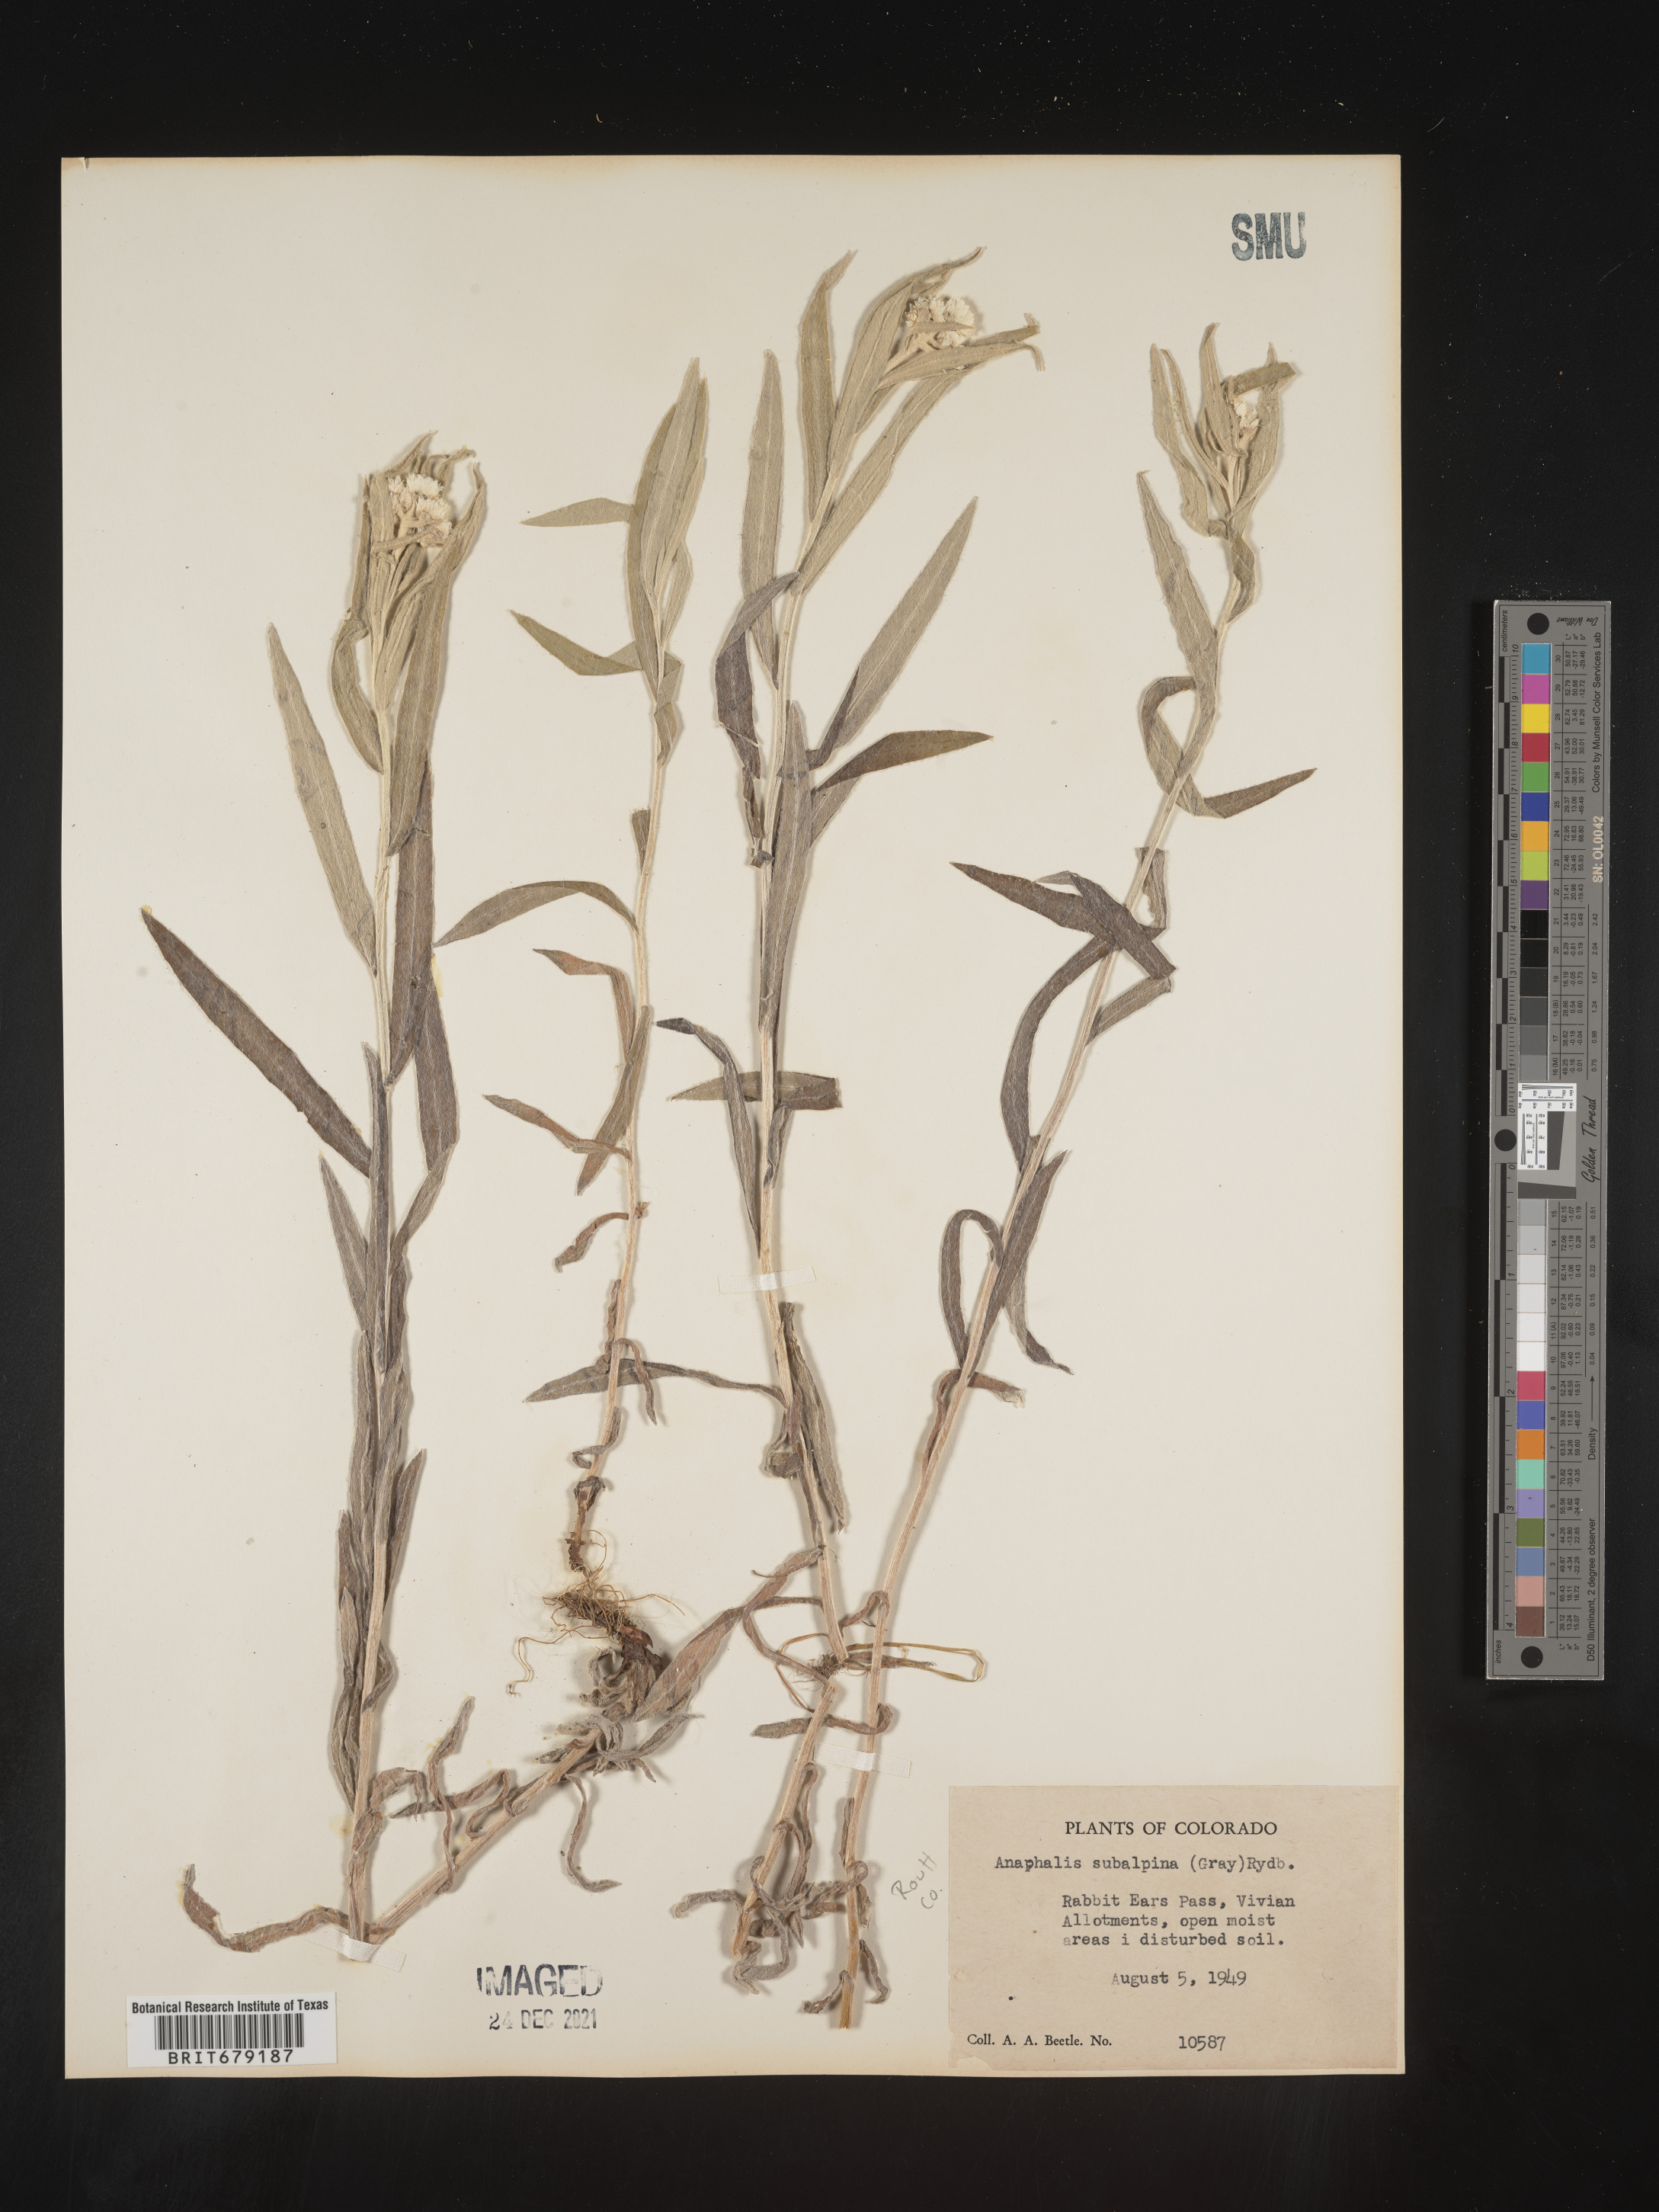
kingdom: Plantae
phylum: Tracheophyta
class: Magnoliopsida
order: Asterales
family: Asteraceae
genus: Anaphalis
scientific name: Anaphalis margaritacea
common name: Pearly everlasting
